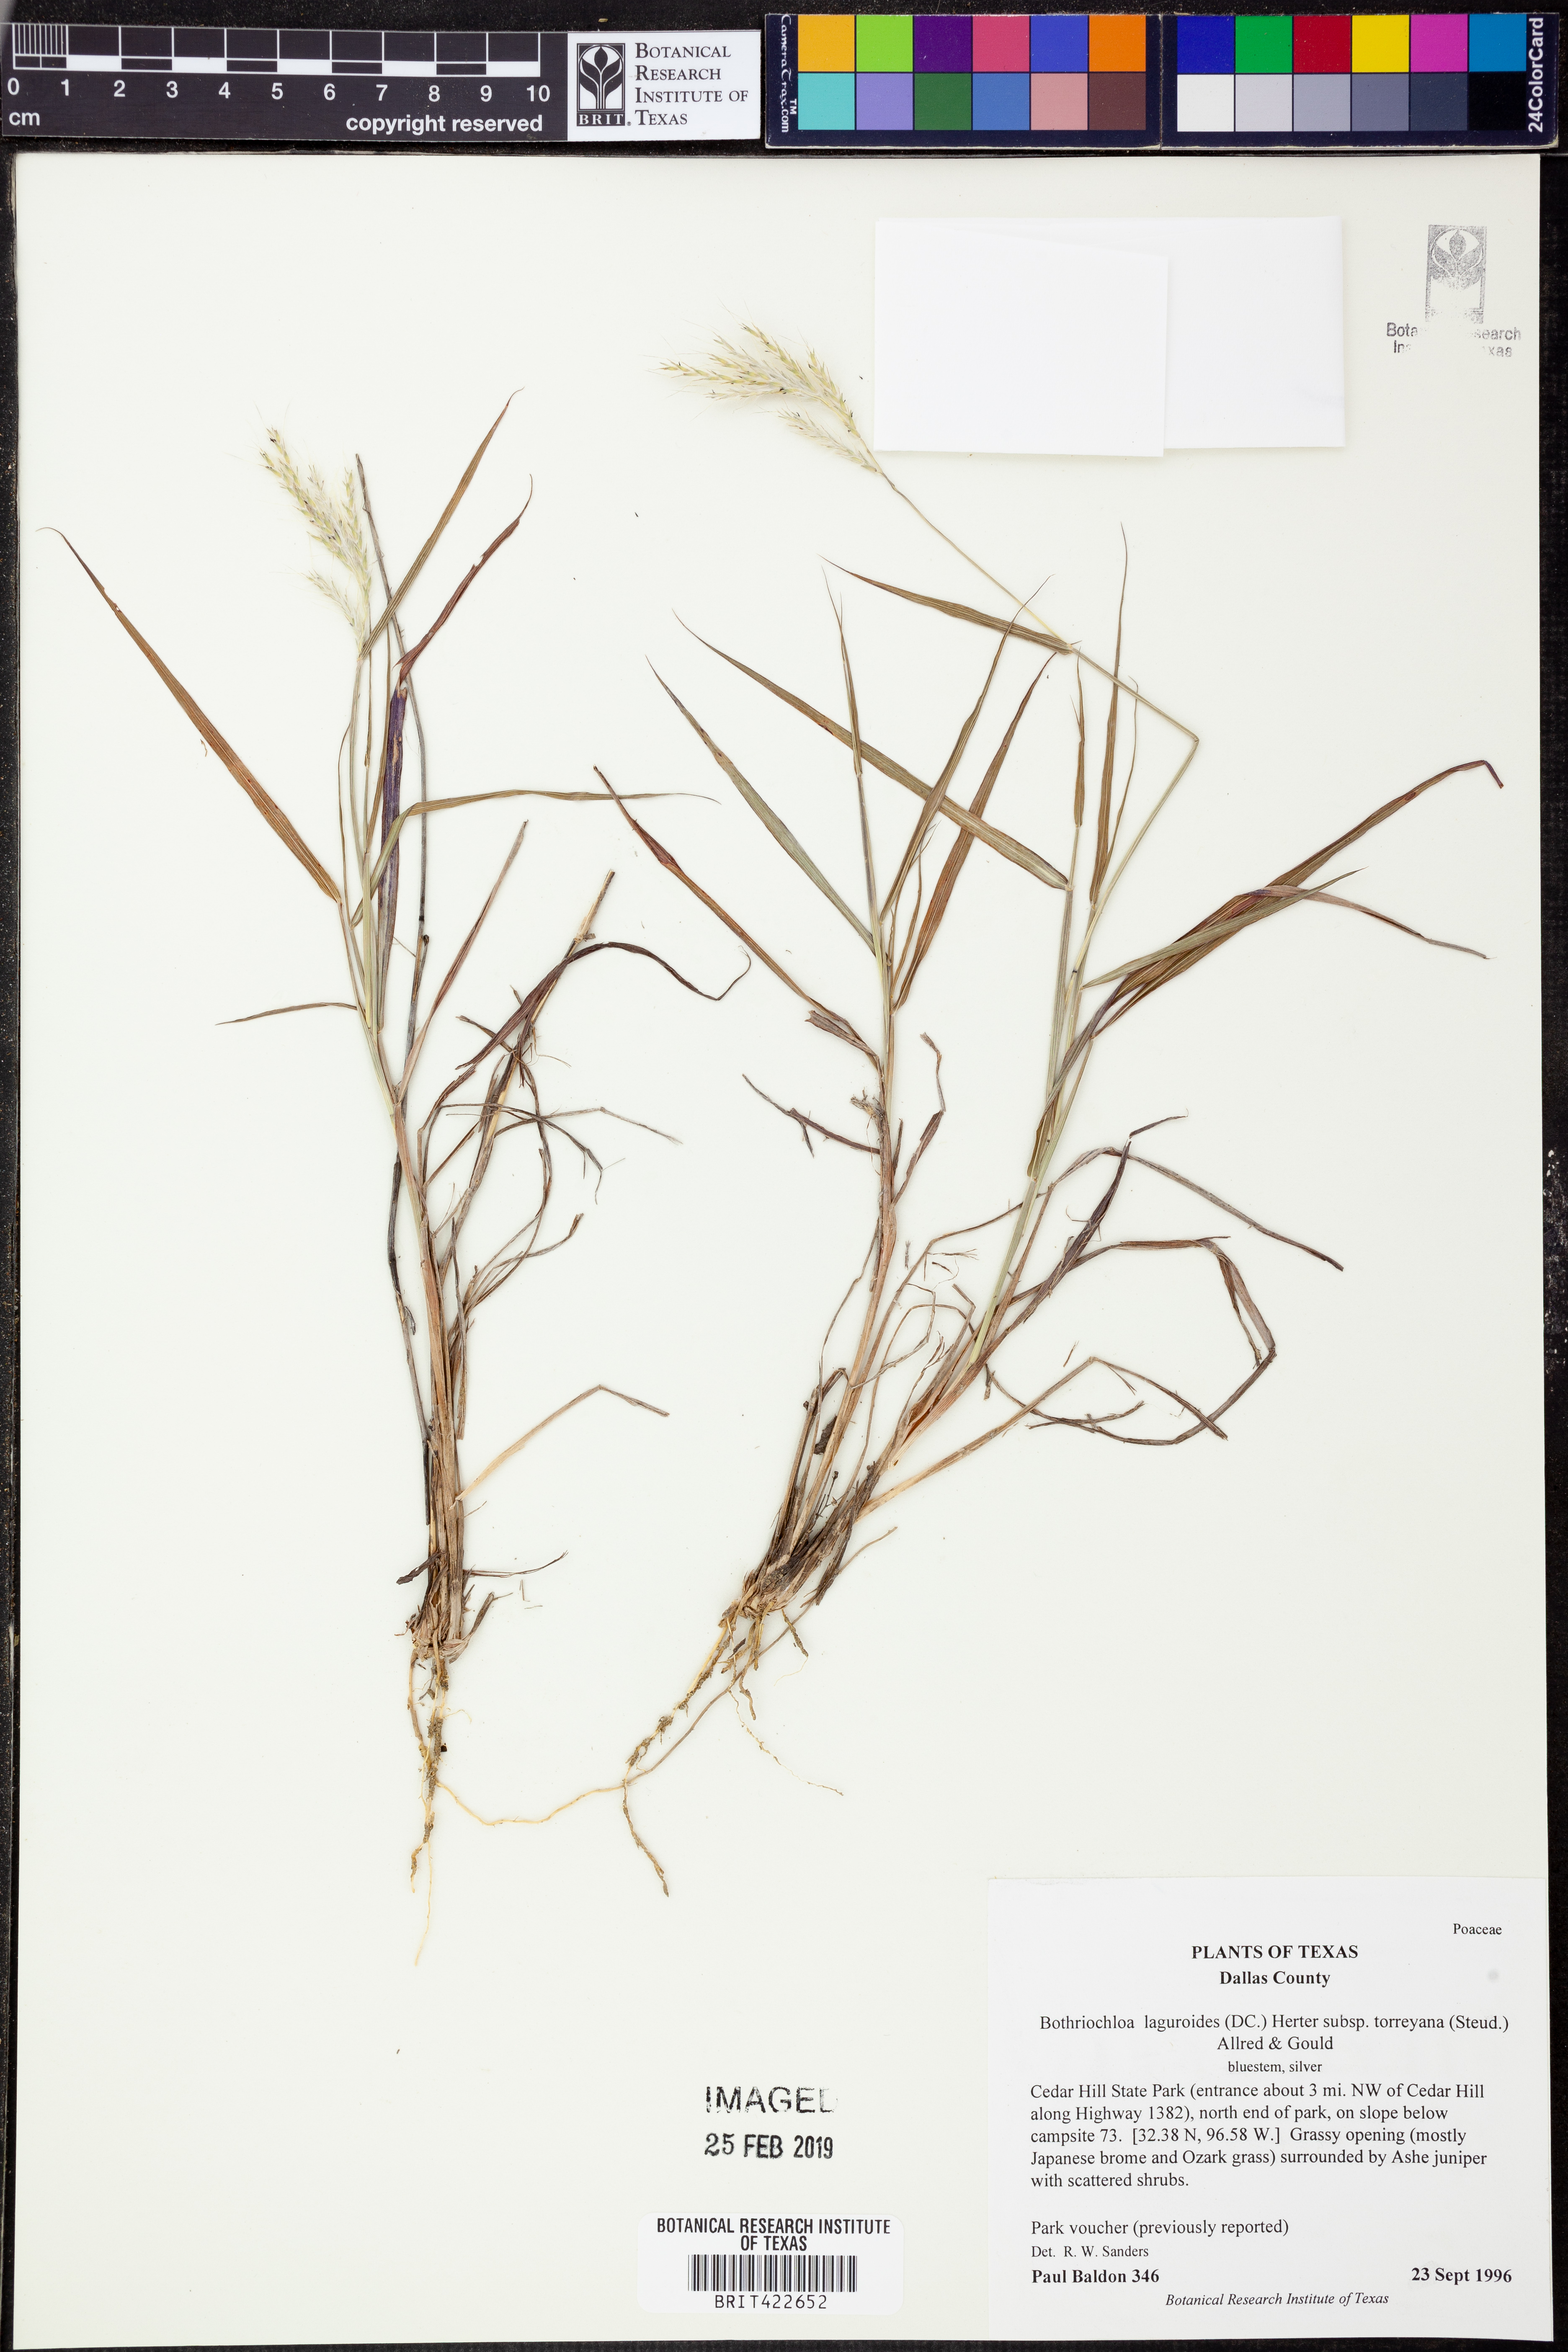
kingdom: Plantae
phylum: Tracheophyta
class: Liliopsida
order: Poales
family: Poaceae
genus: Bothriochloa
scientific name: Bothriochloa torreyana
